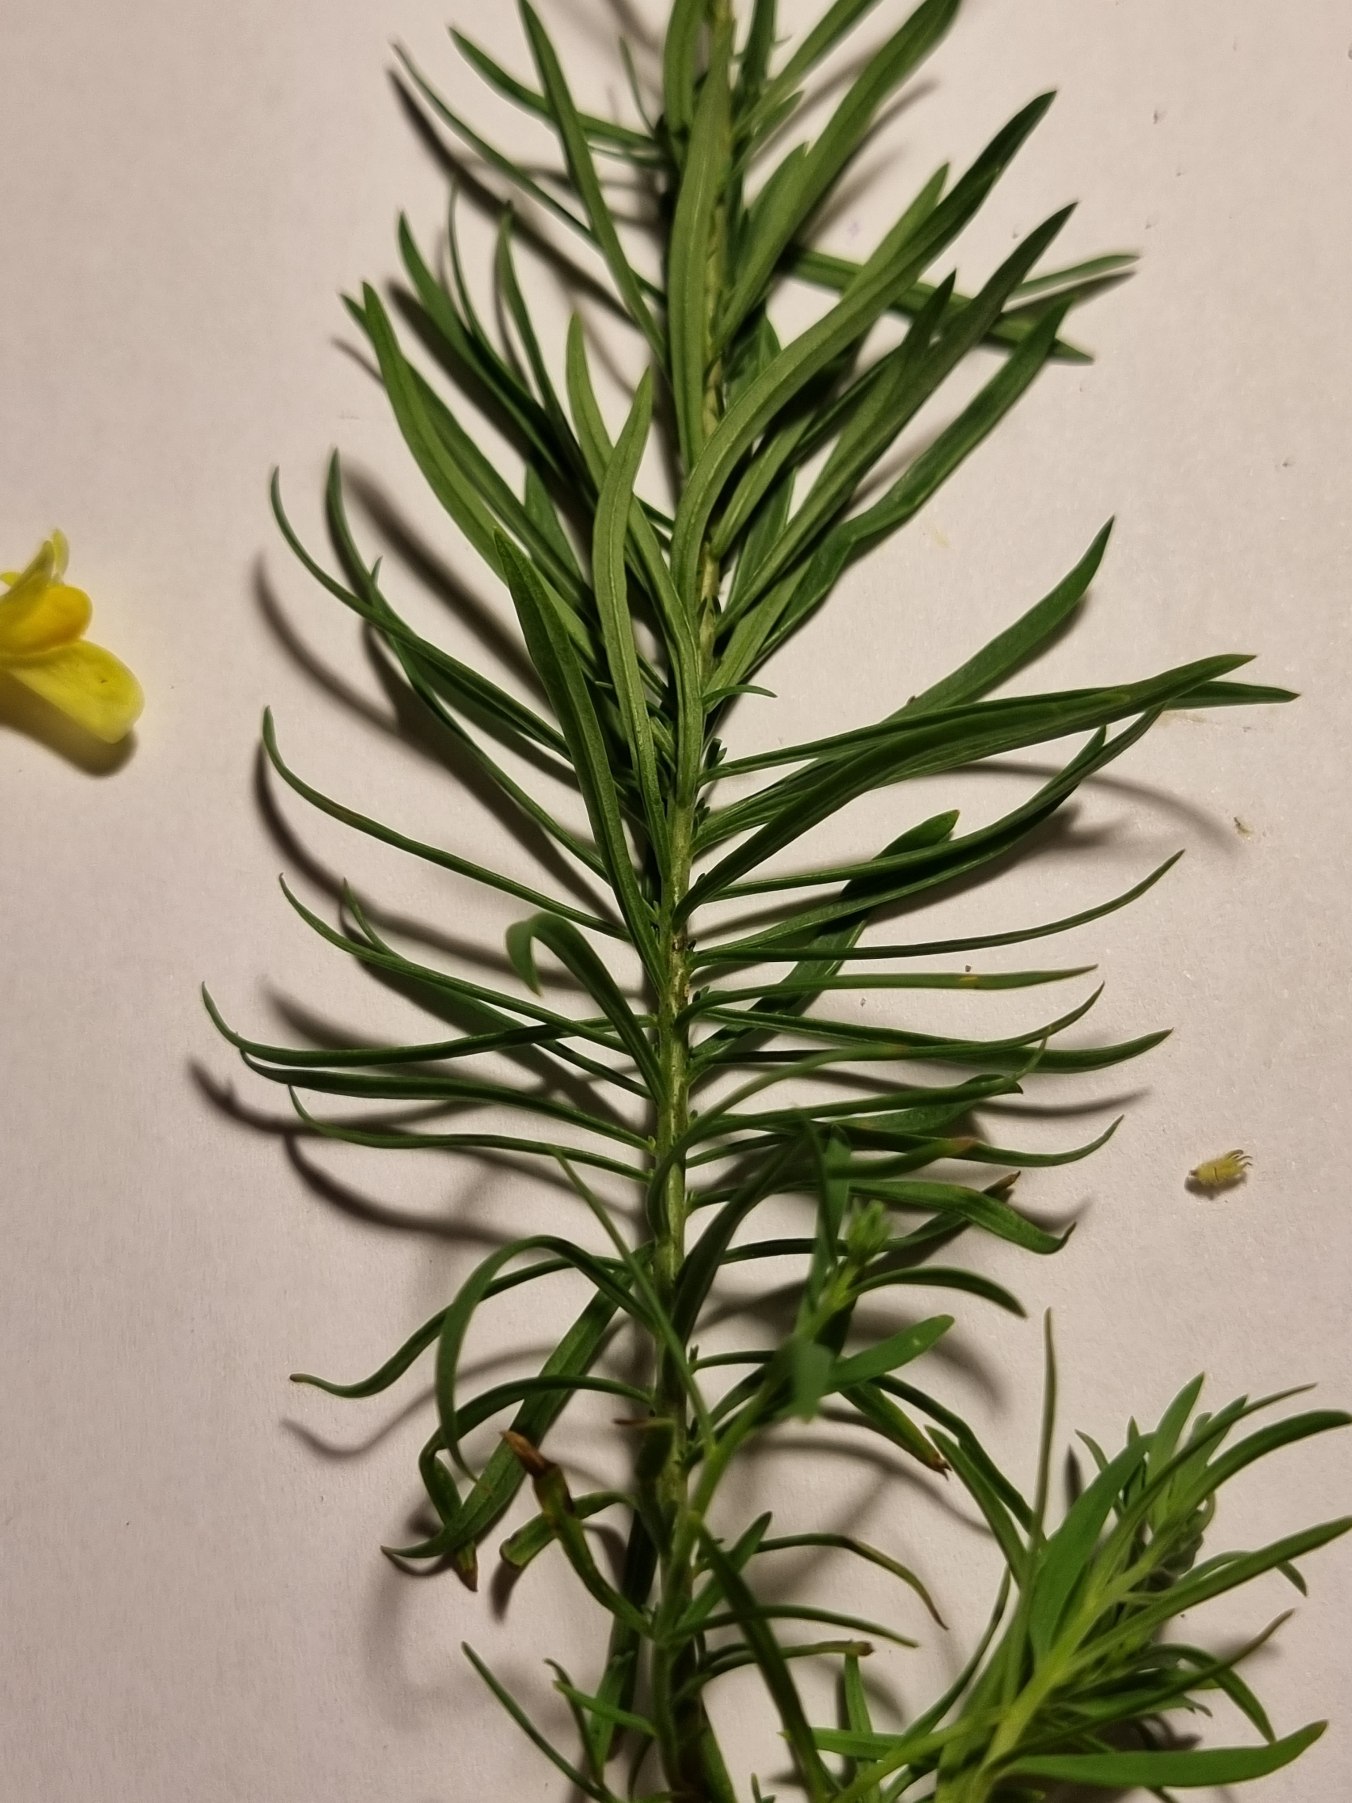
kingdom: Plantae
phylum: Tracheophyta
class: Magnoliopsida
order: Lamiales
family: Plantaginaceae
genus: Linaria
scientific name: Linaria vulgaris
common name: Almindelig torskemund
